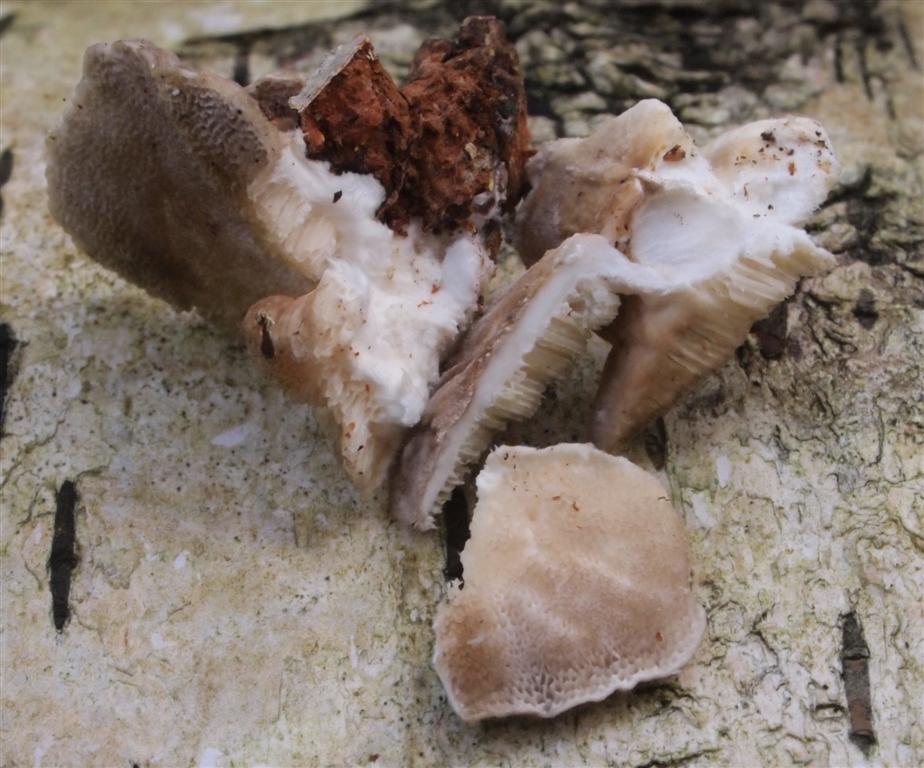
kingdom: Fungi
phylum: Basidiomycota
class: Agaricomycetes
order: Polyporales
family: Polyporaceae
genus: Trametes
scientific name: Trametes ochracea
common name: bæltet læderporesvamp
